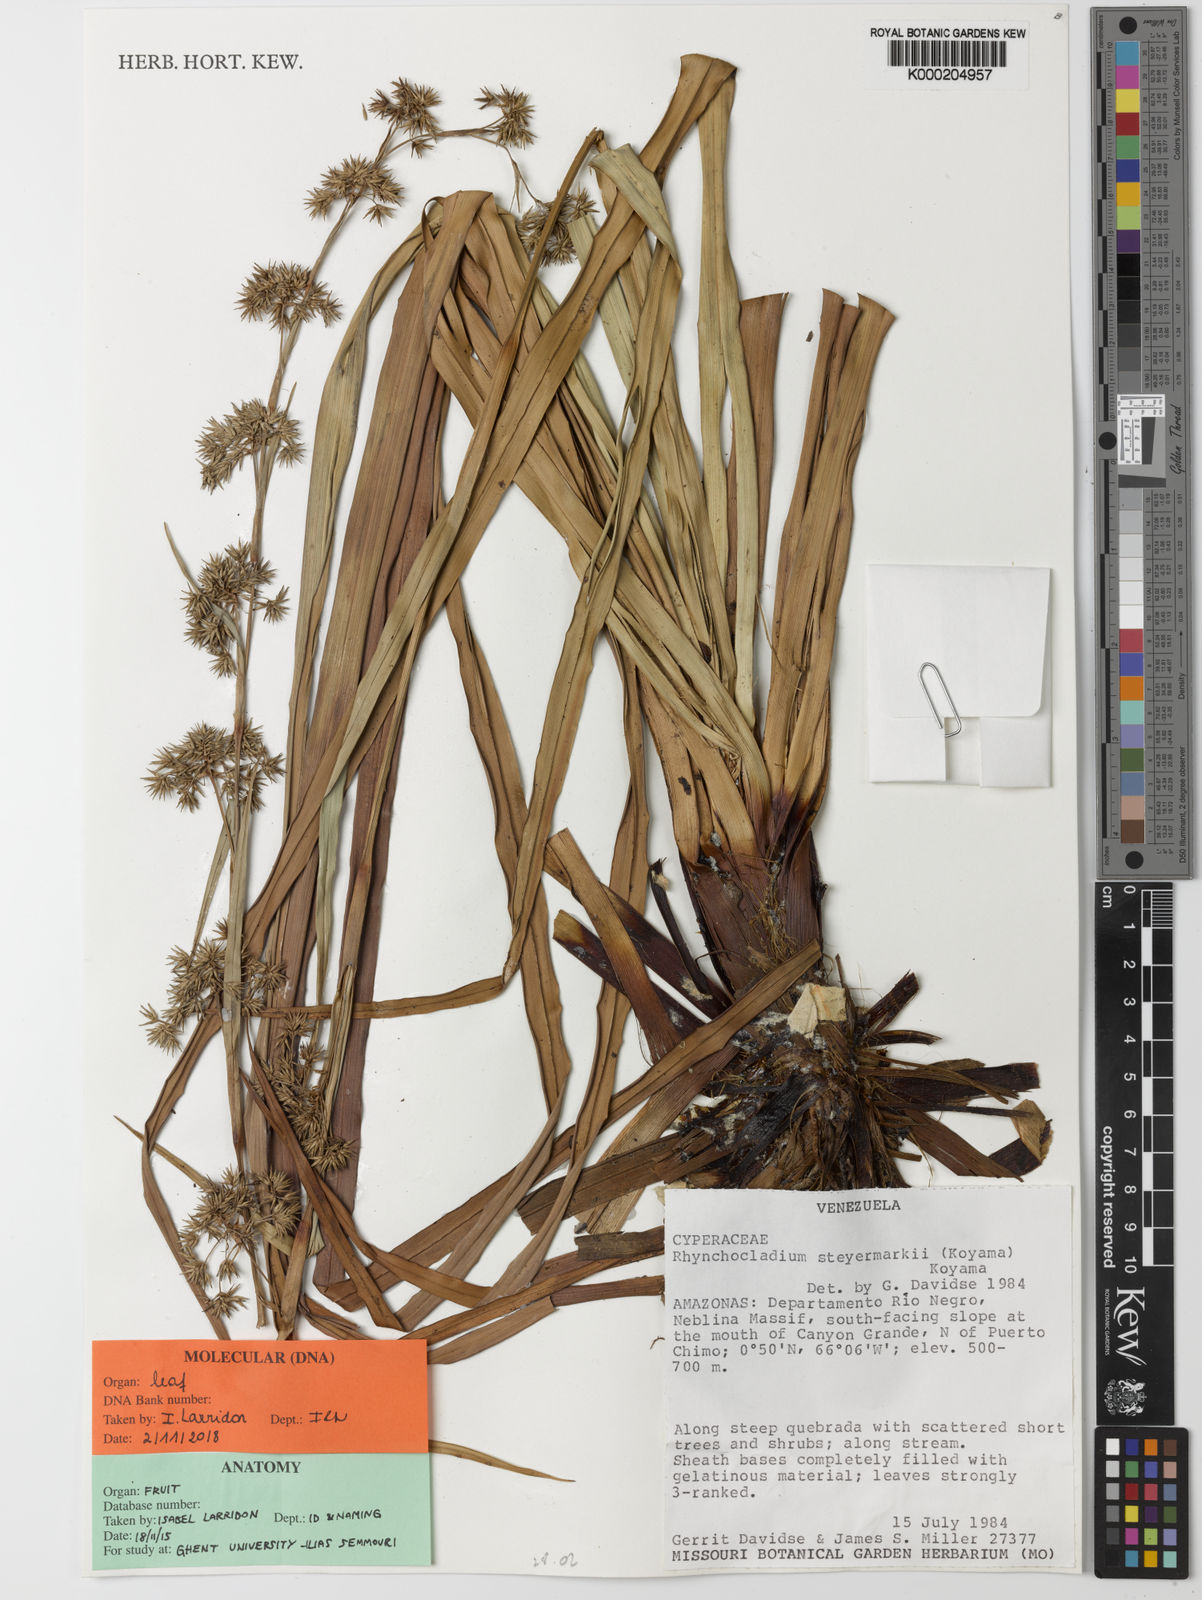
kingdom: Plantae
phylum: Tracheophyta
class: Liliopsida
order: Poales
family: Cyperaceae
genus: Rhynchocladium
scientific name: Rhynchocladium steyermarkii
